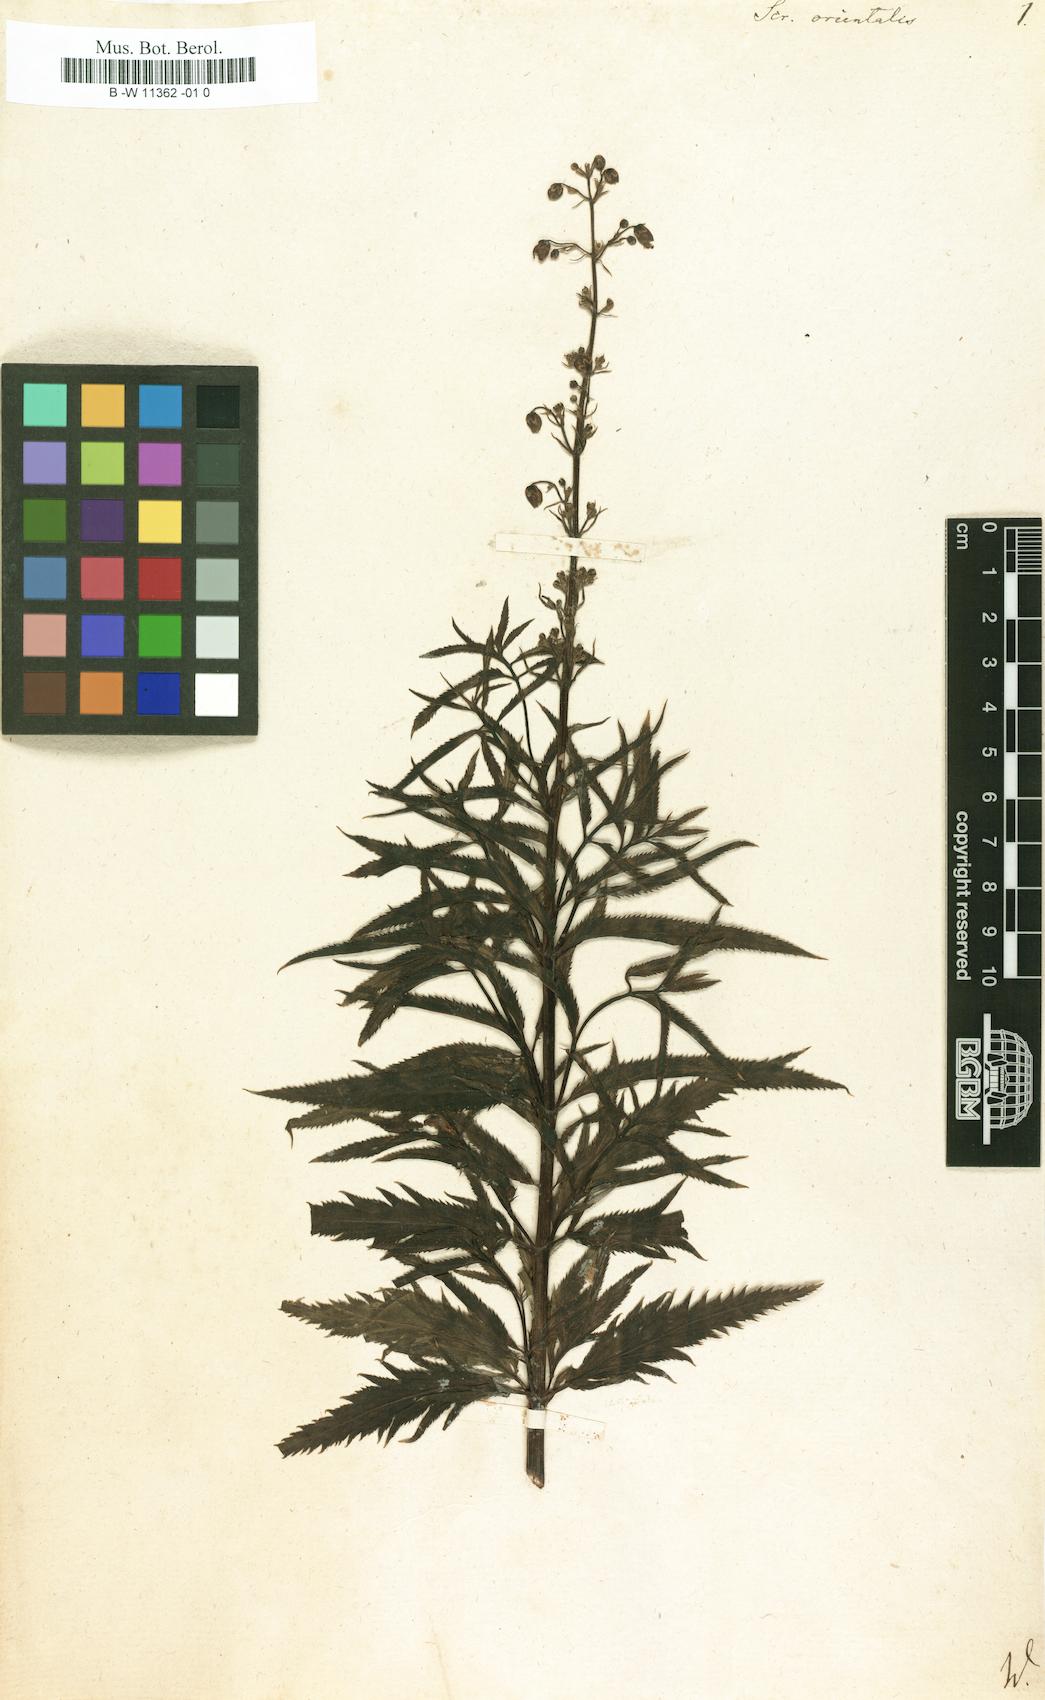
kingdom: Plantae
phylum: Tracheophyta
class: Magnoliopsida
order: Lamiales
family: Scrophulariaceae
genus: Scrophularia
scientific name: Scrophularia orientalis
